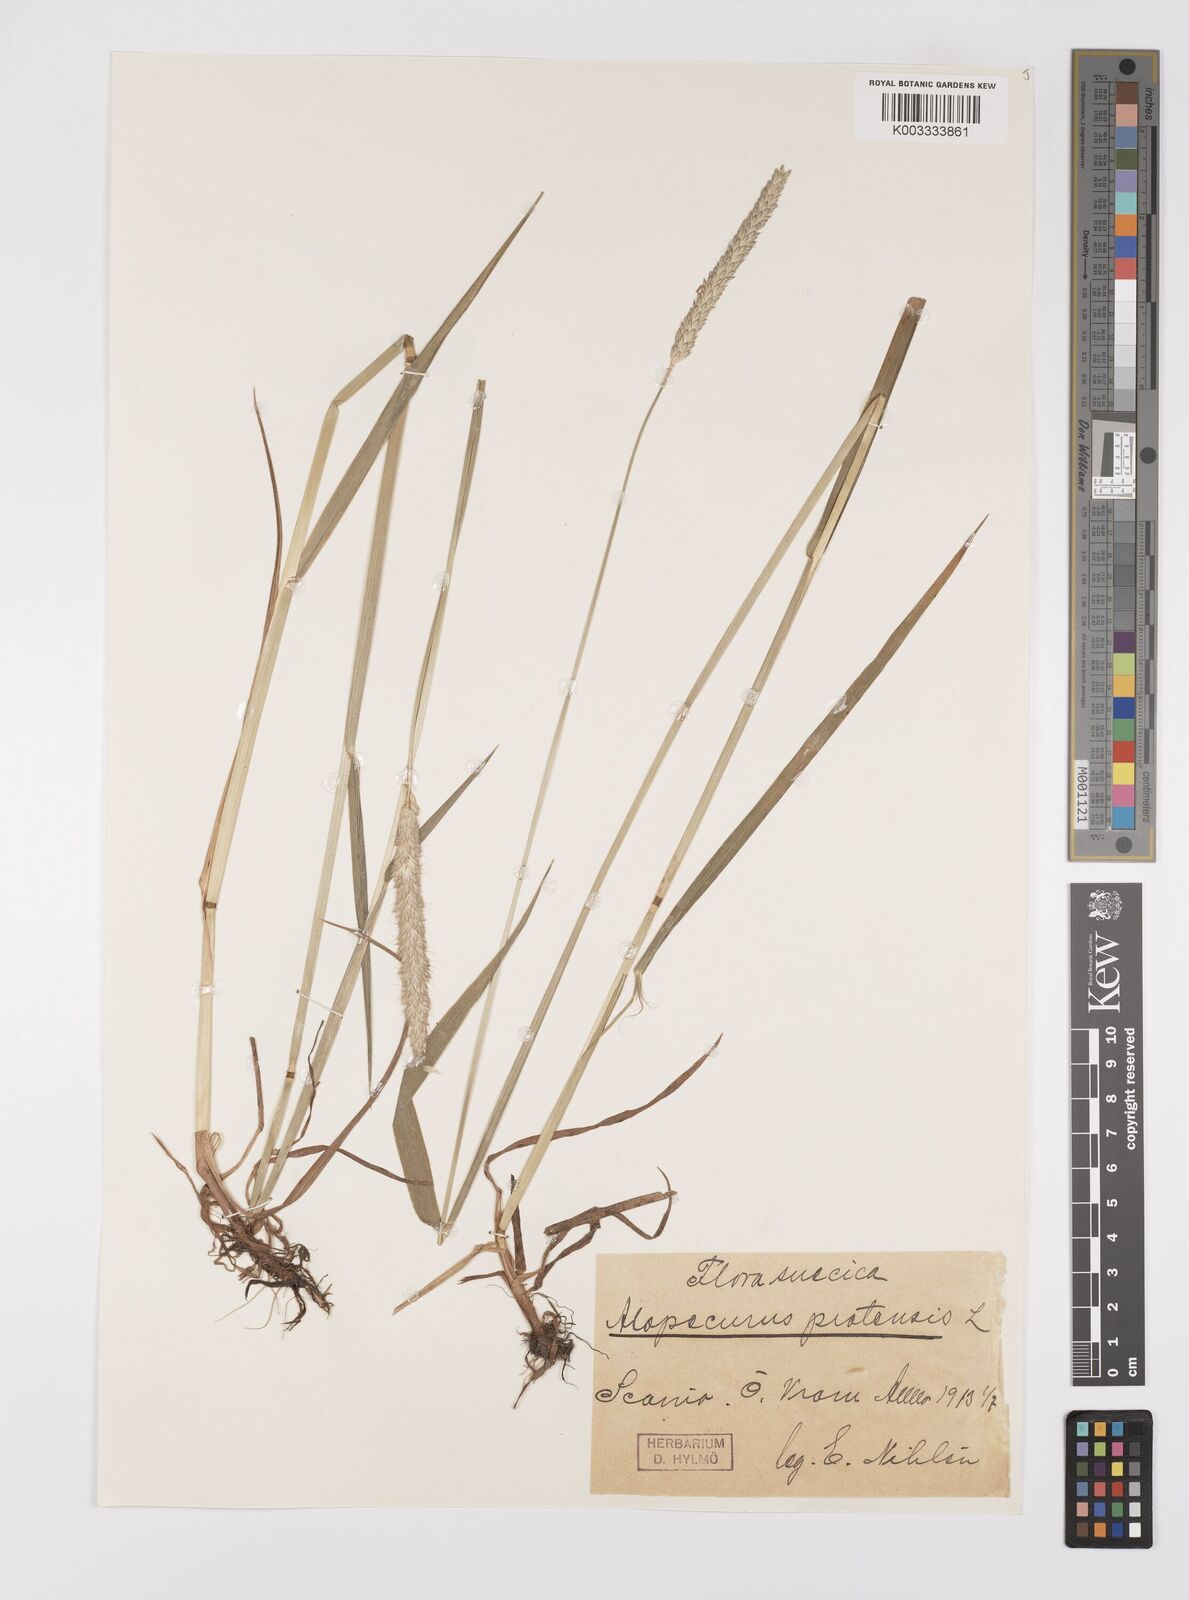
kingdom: Plantae
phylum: Tracheophyta
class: Liliopsida
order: Poales
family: Poaceae
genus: Alopecurus
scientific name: Alopecurus pratensis
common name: Meadow foxtail
